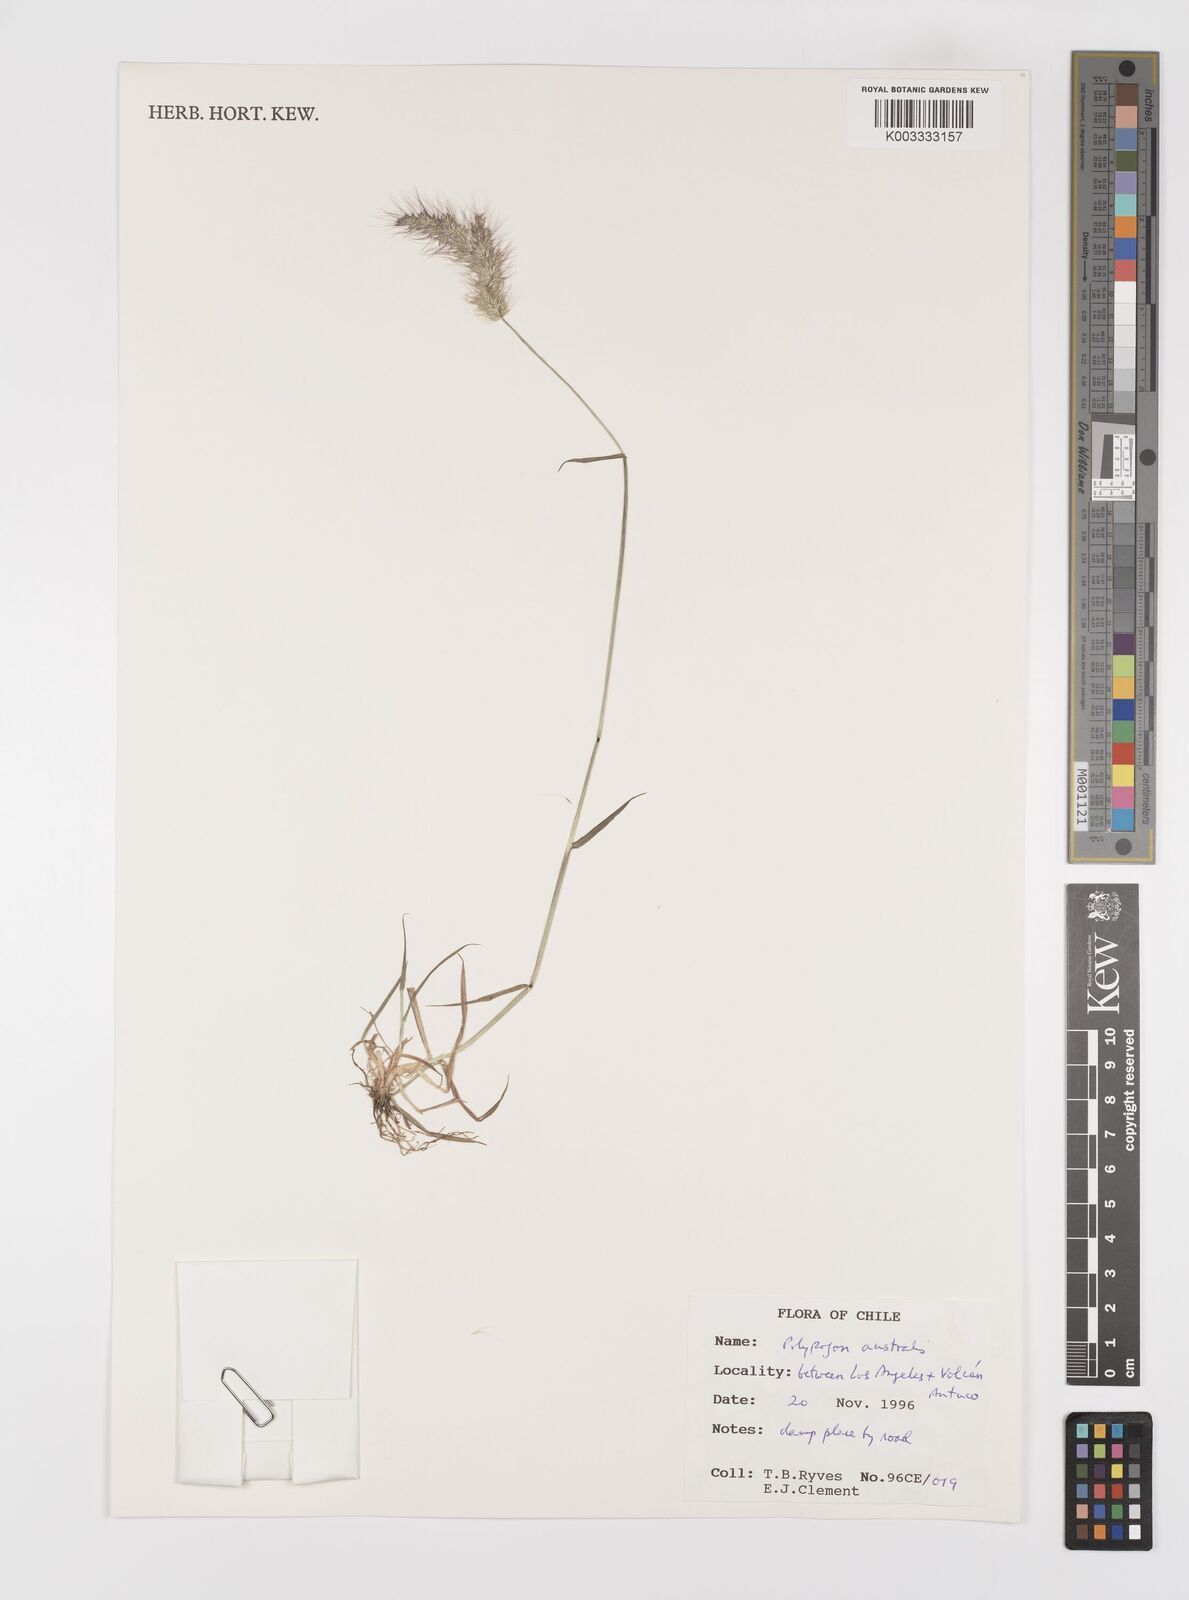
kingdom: Plantae
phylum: Tracheophyta
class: Liliopsida
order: Poales
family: Poaceae
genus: Polypogon
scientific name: Polypogon australis
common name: Chilean rabbitsfoot grass
